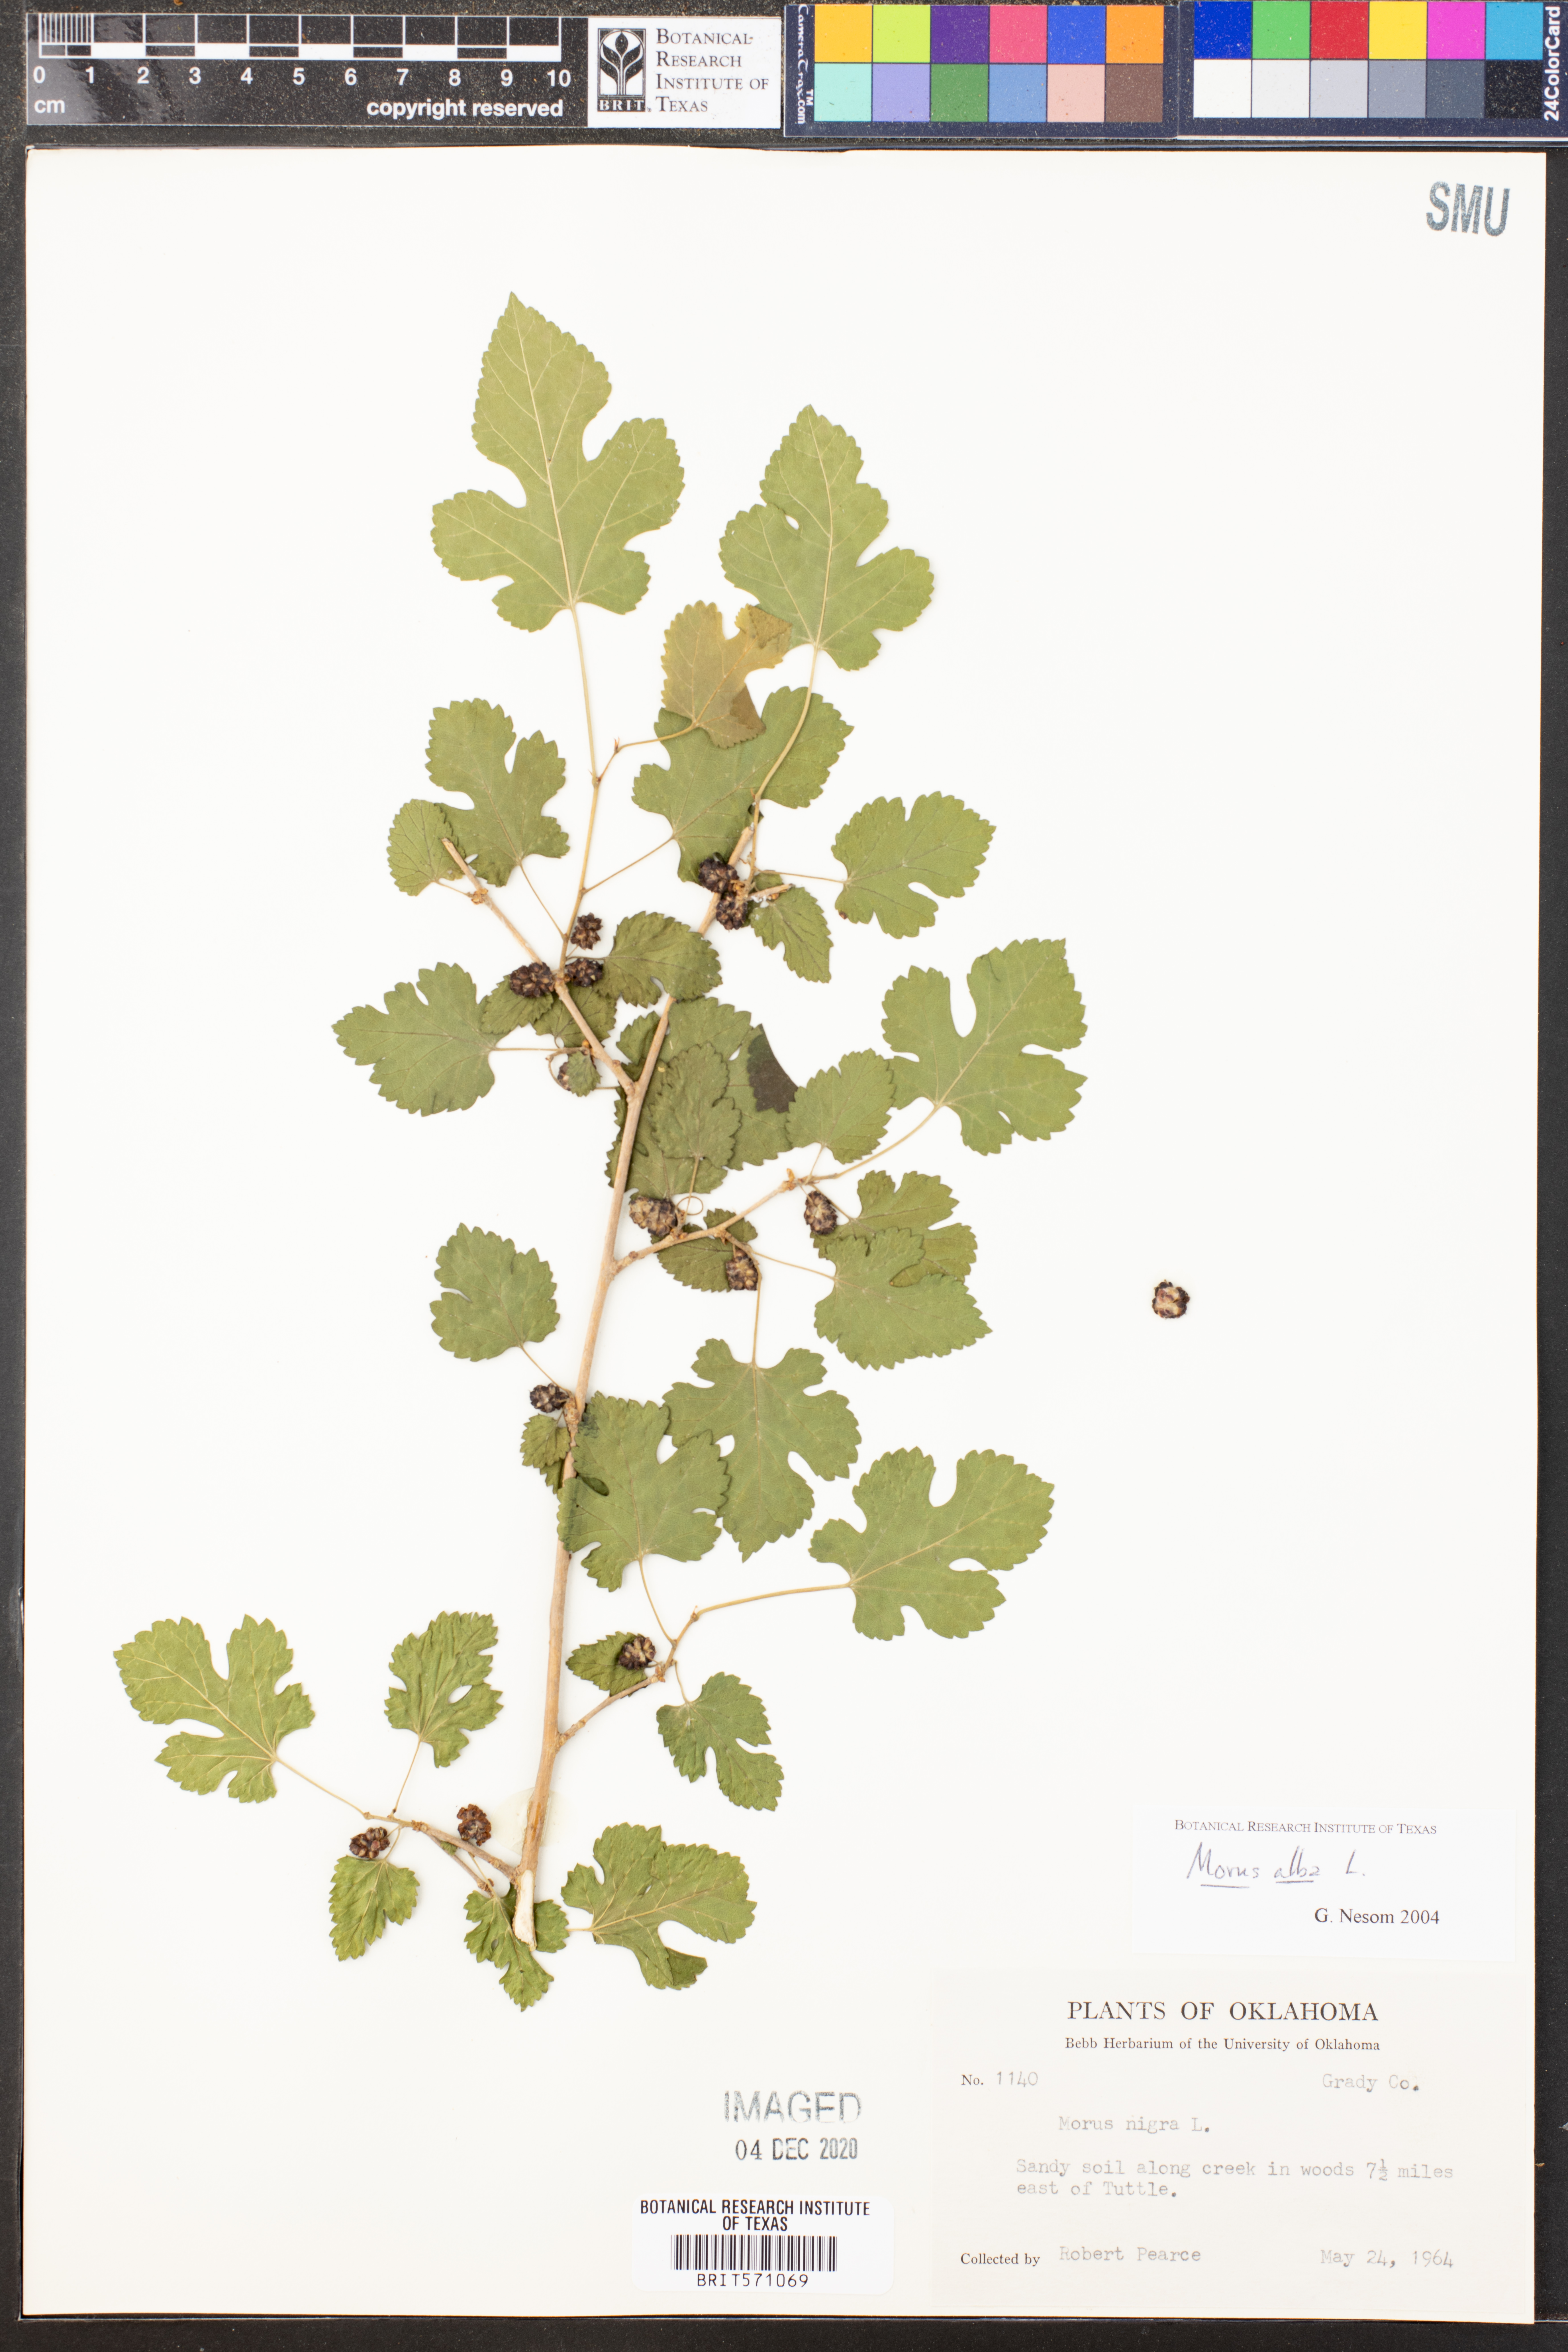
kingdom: Plantae
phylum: Tracheophyta
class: Magnoliopsida
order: Rosales
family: Moraceae
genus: Morus
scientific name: Morus alba
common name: White mulberry
